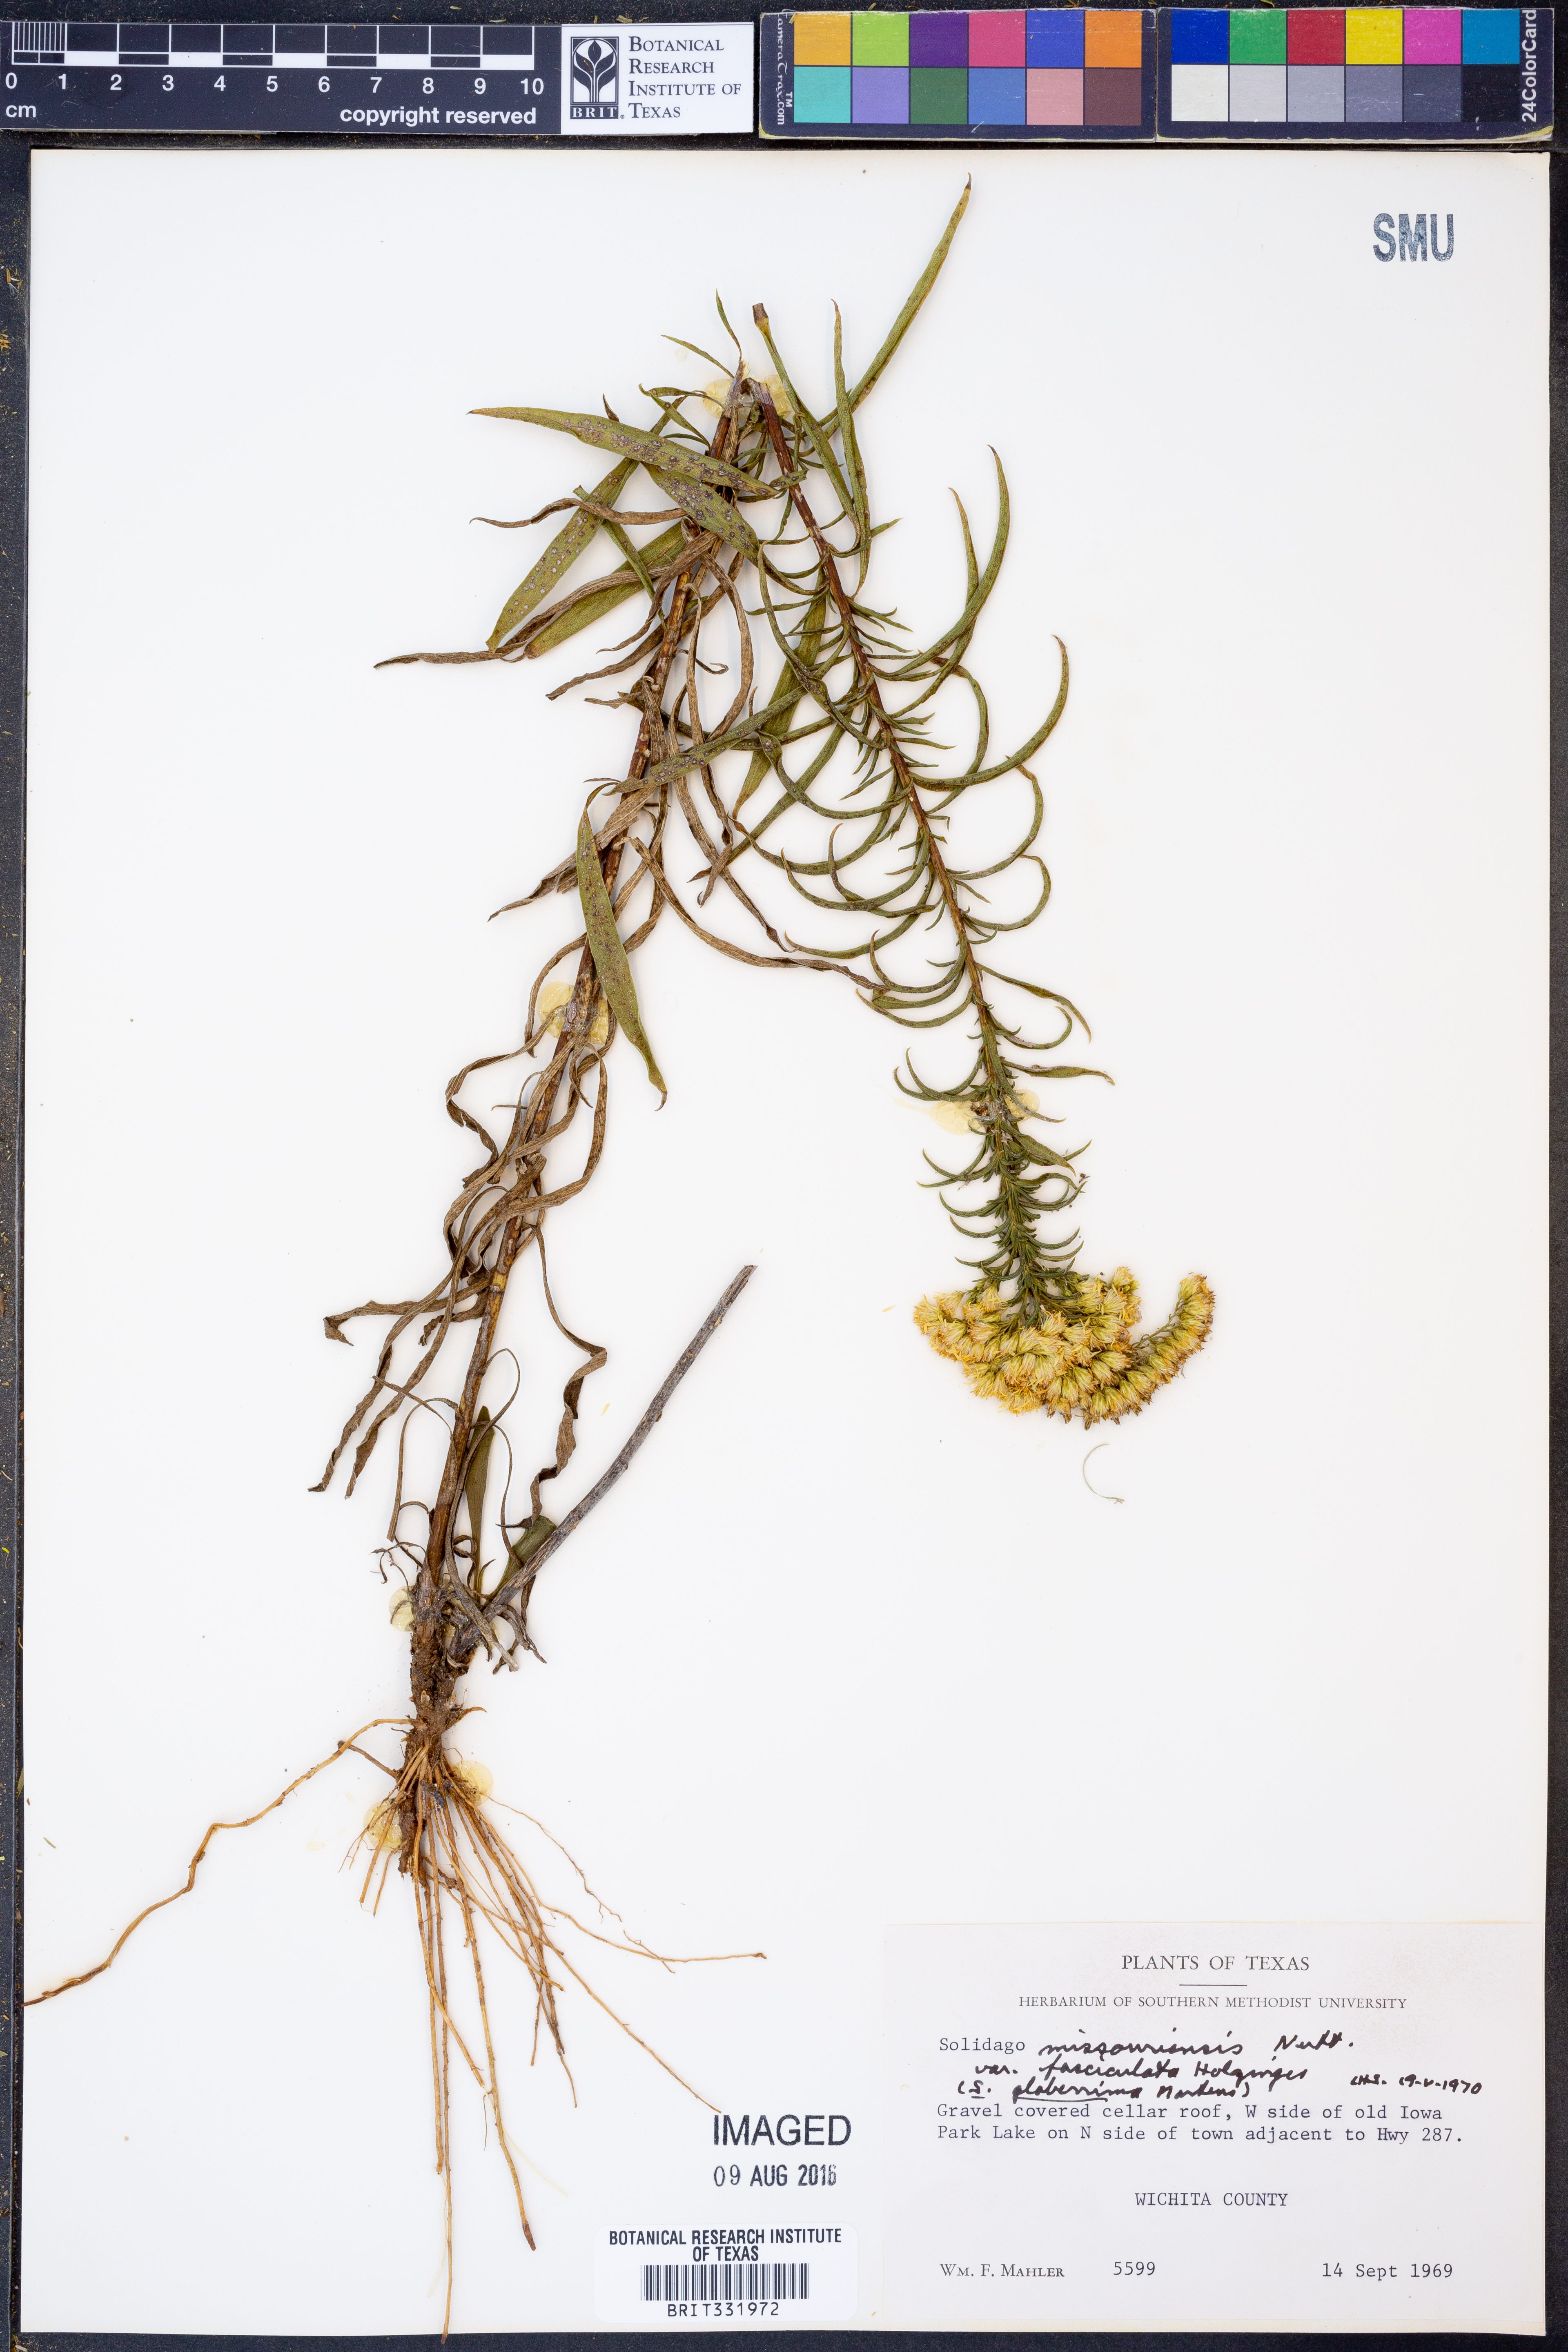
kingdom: Plantae
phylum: Tracheophyta
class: Magnoliopsida
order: Asterales
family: Asteraceae
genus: Solidago
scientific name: Solidago missouriensis
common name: Prairie goldenrod
